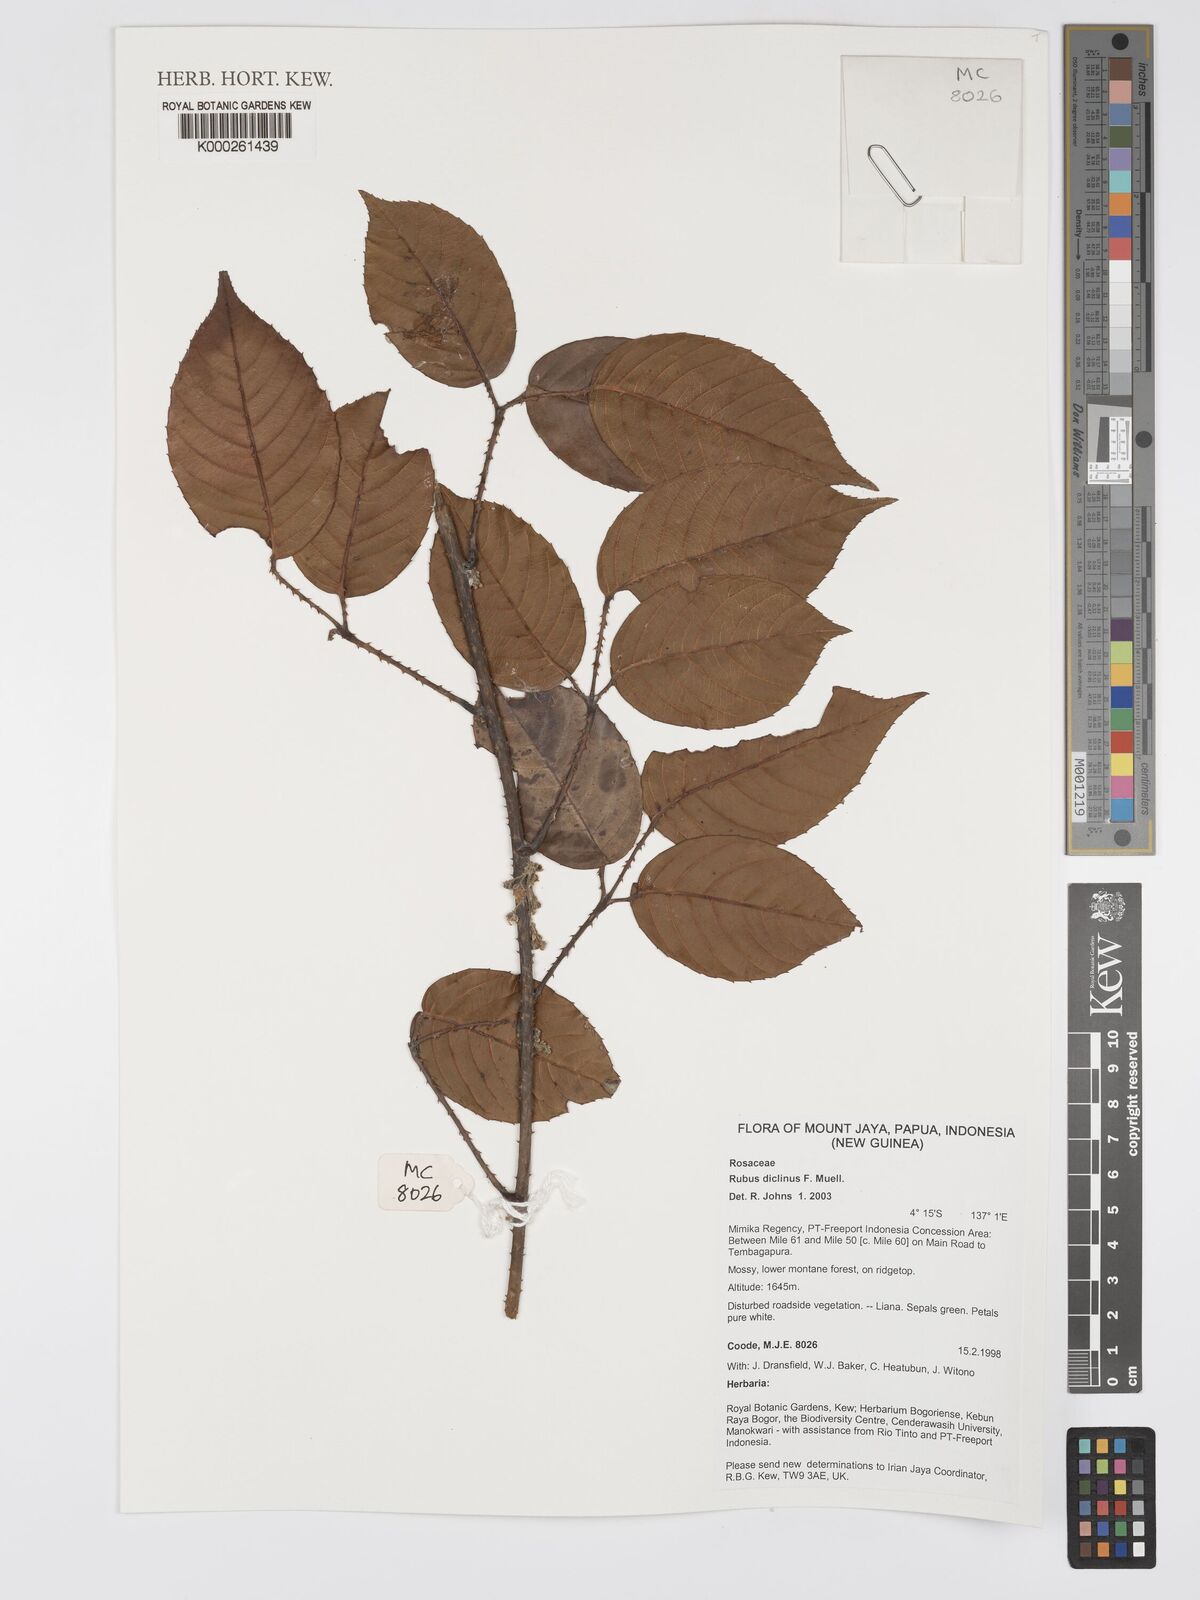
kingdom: Plantae
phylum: Tracheophyta
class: Magnoliopsida
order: Rosales
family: Rosaceae
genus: Rubus
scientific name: Rubus diclinis
